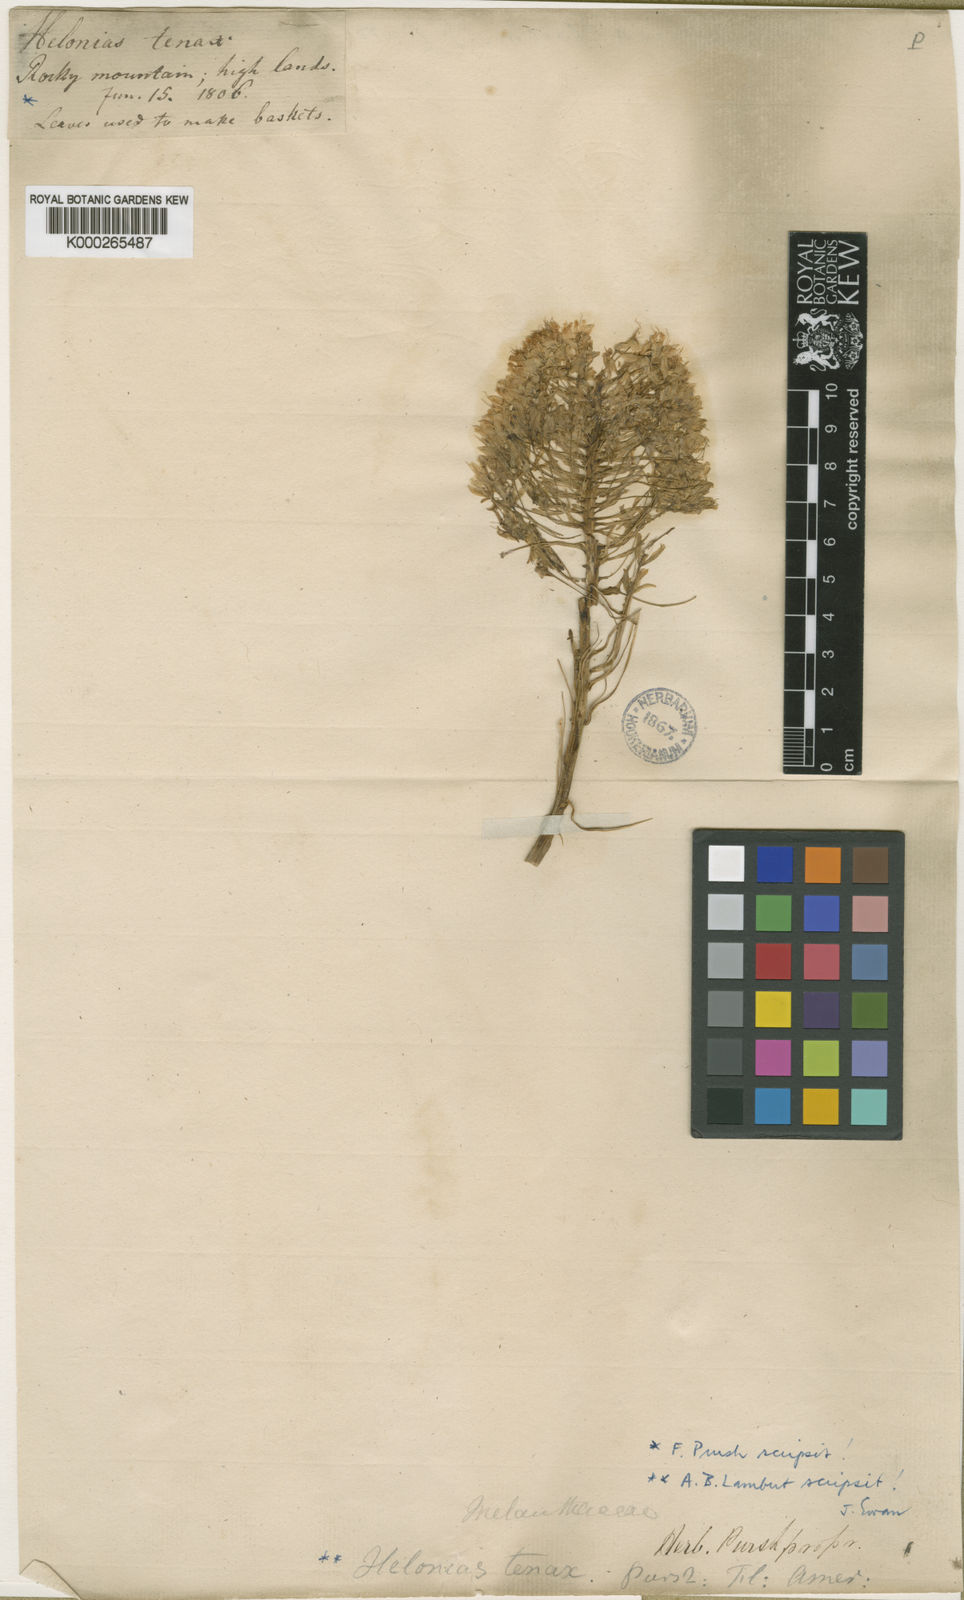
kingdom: Plantae
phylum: Tracheophyta
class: Liliopsida
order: Liliales
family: Melanthiaceae
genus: Xerophyllum
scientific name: Xerophyllum tenax
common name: Bear-grass
